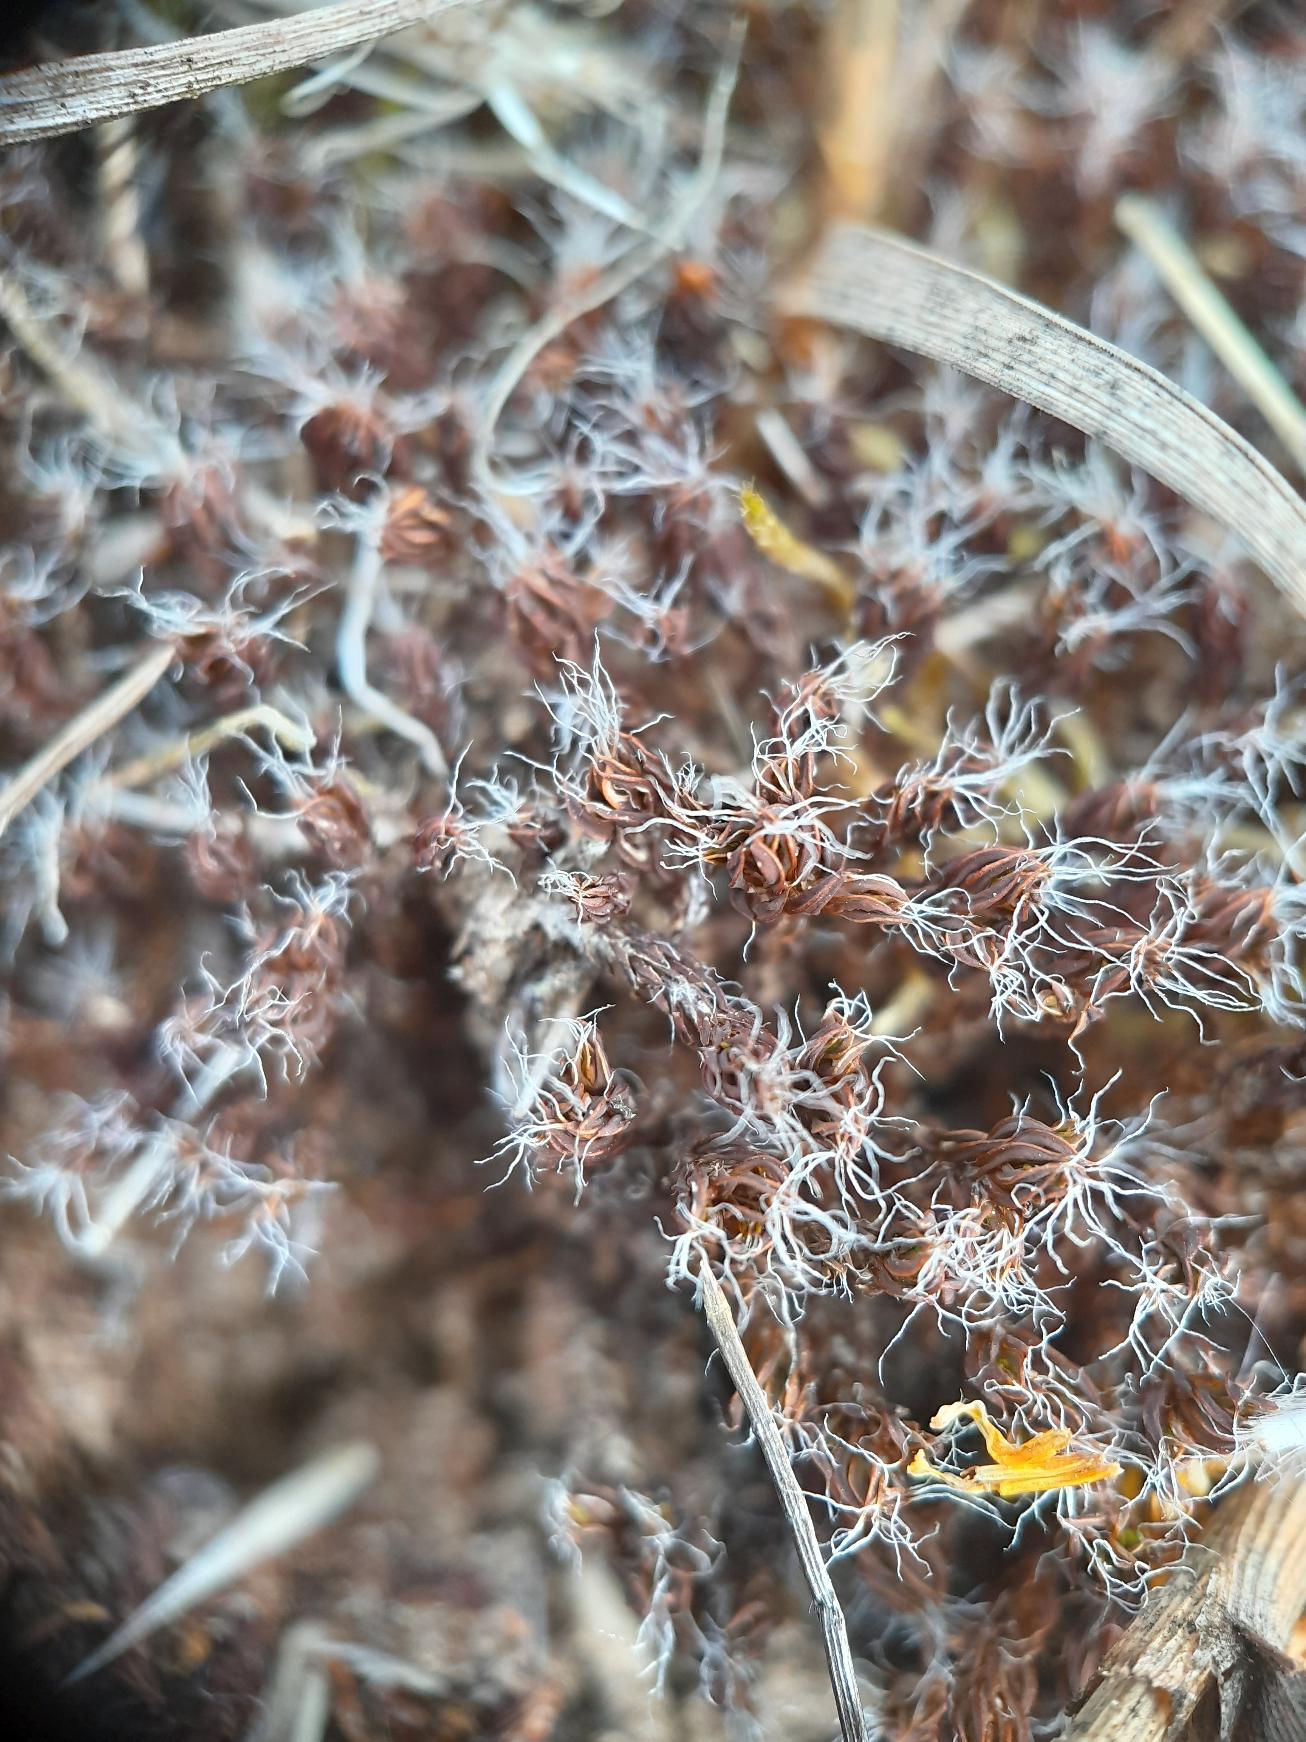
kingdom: Plantae
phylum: Bryophyta
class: Bryopsida
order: Pottiales
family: Pottiaceae
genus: Syntrichia
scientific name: Syntrichia
